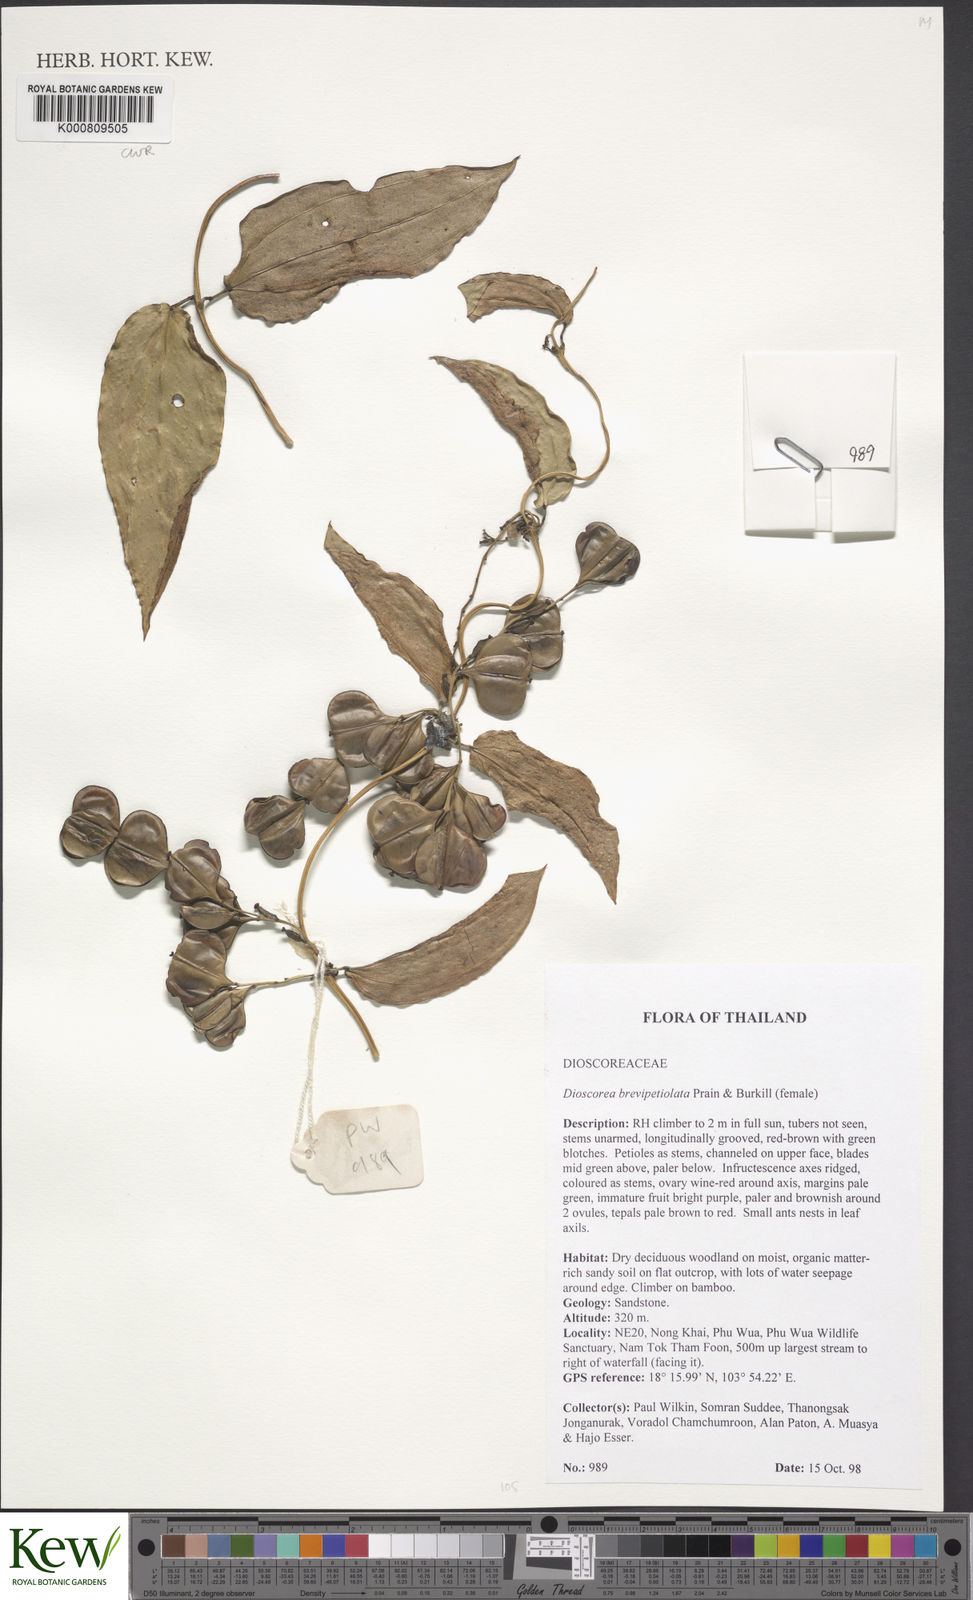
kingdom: Plantae
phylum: Tracheophyta
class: Liliopsida
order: Dioscoreales
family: Dioscoreaceae
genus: Dioscorea
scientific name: Dioscorea brevipetiolata
